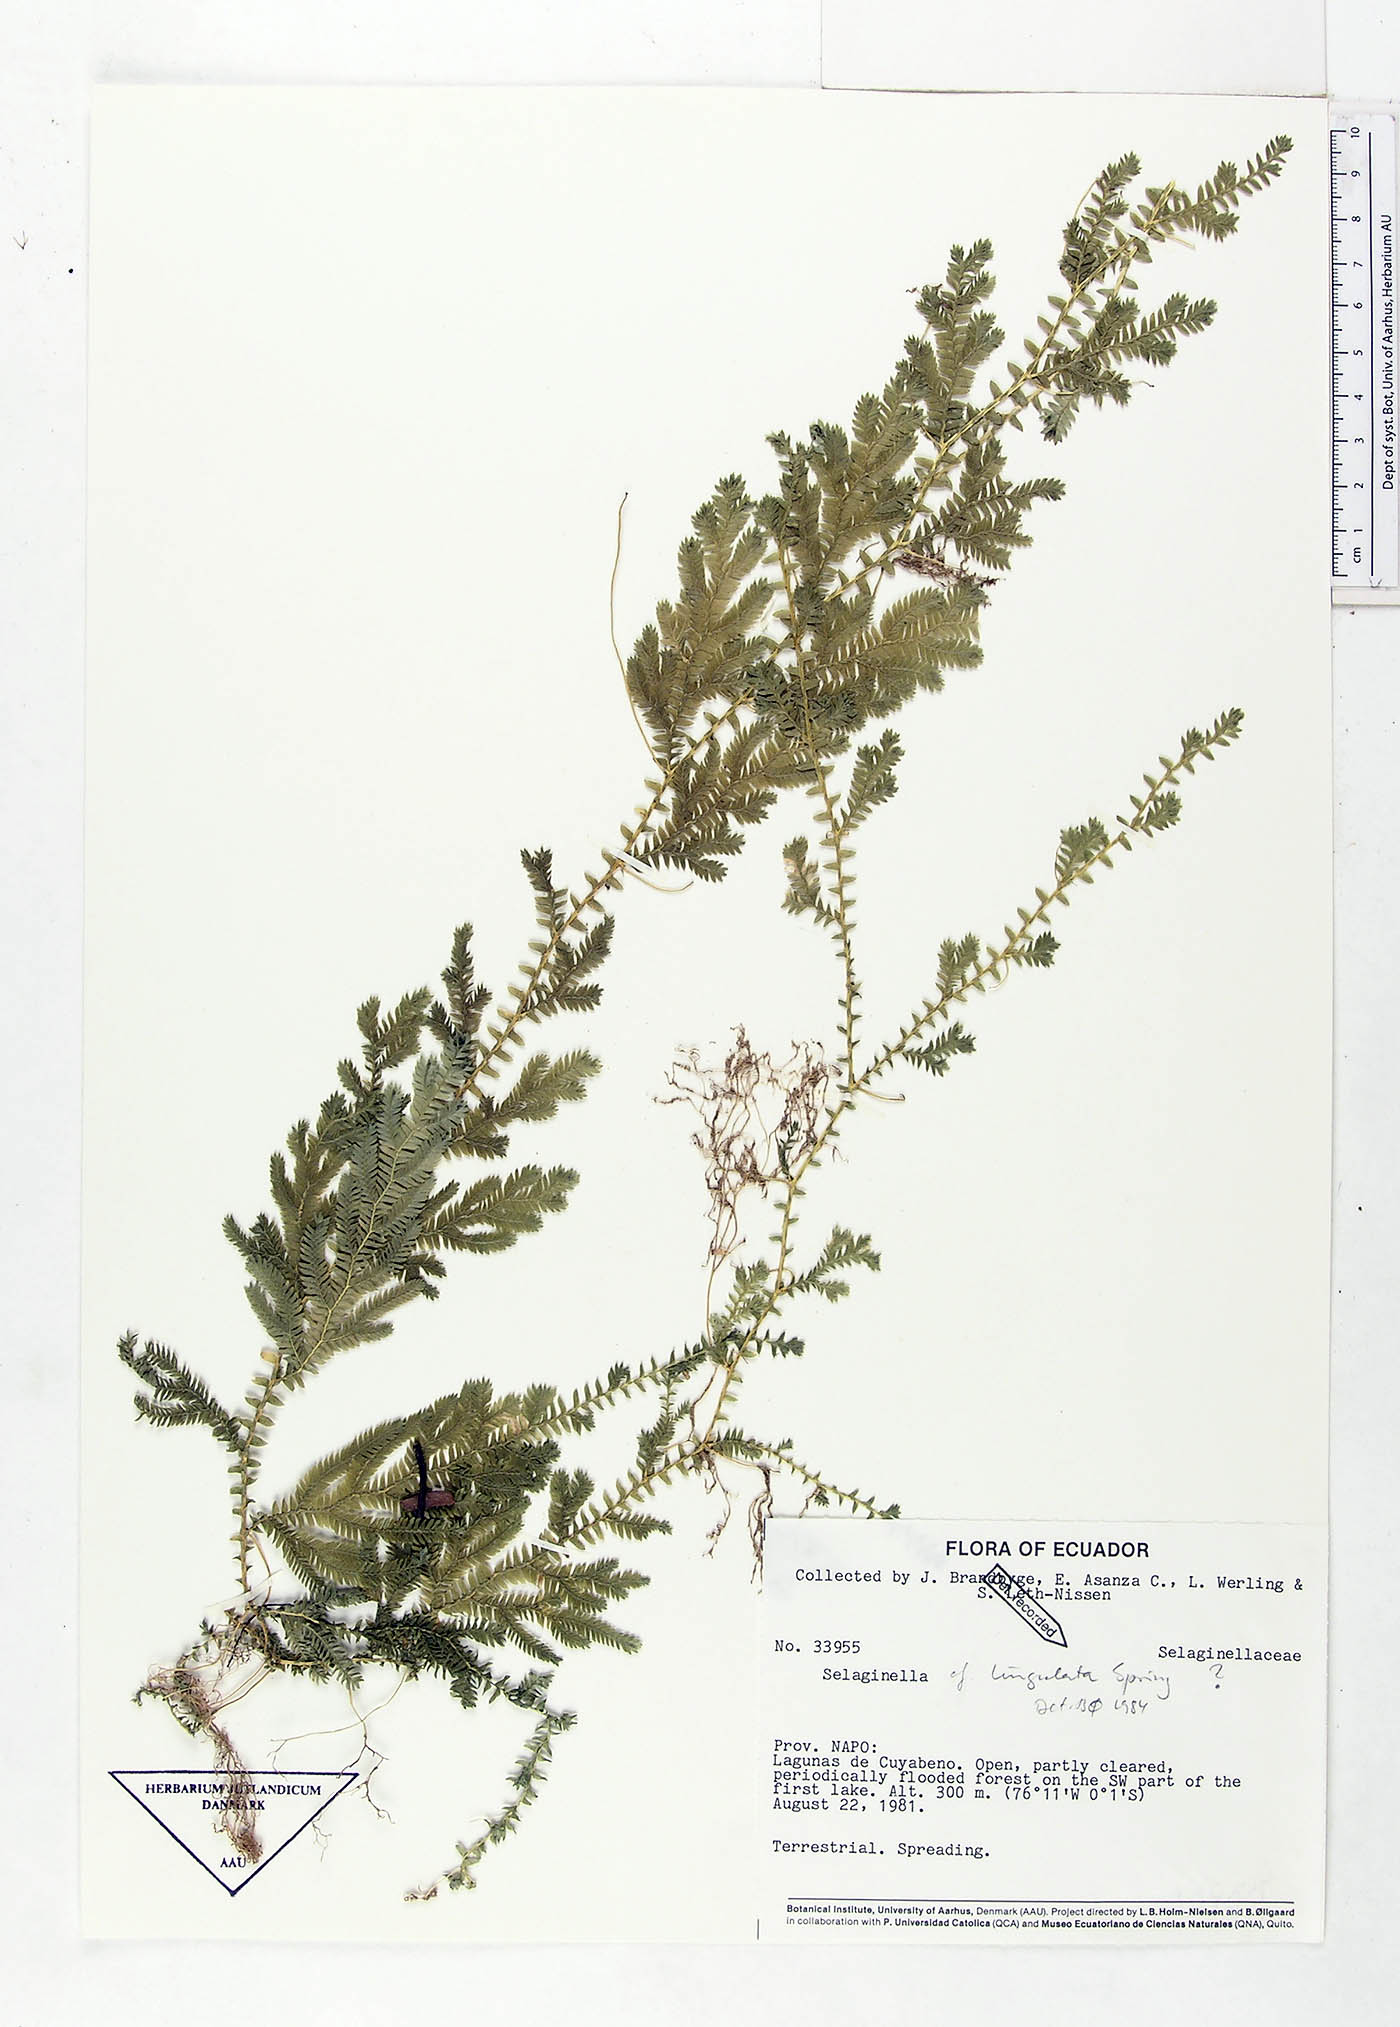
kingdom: Plantae
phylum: Tracheophyta
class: Lycopodiopsida
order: Selaginellales
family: Selaginellaceae
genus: Selaginella
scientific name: Selaginella lingulata
